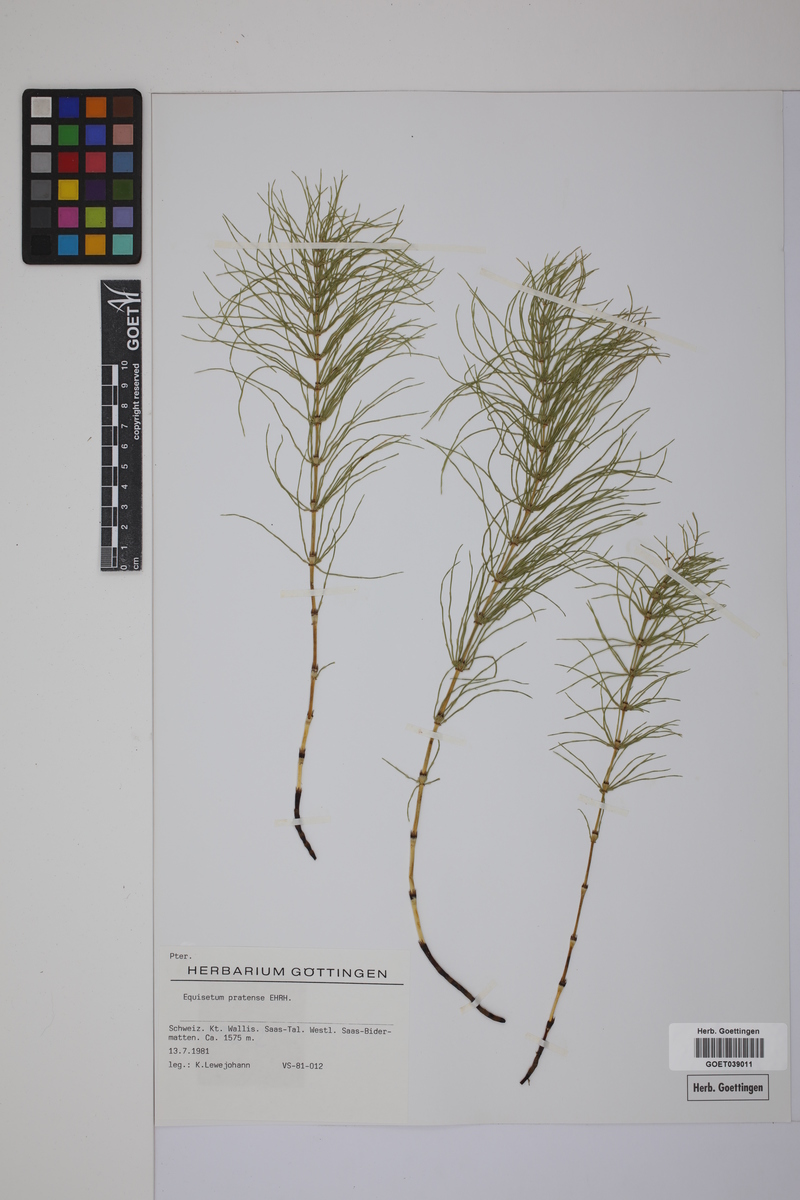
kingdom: Plantae
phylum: Tracheophyta
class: Polypodiopsida
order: Equisetales
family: Equisetaceae
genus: Equisetum
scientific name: Equisetum pratense
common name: Meadow horsetail
